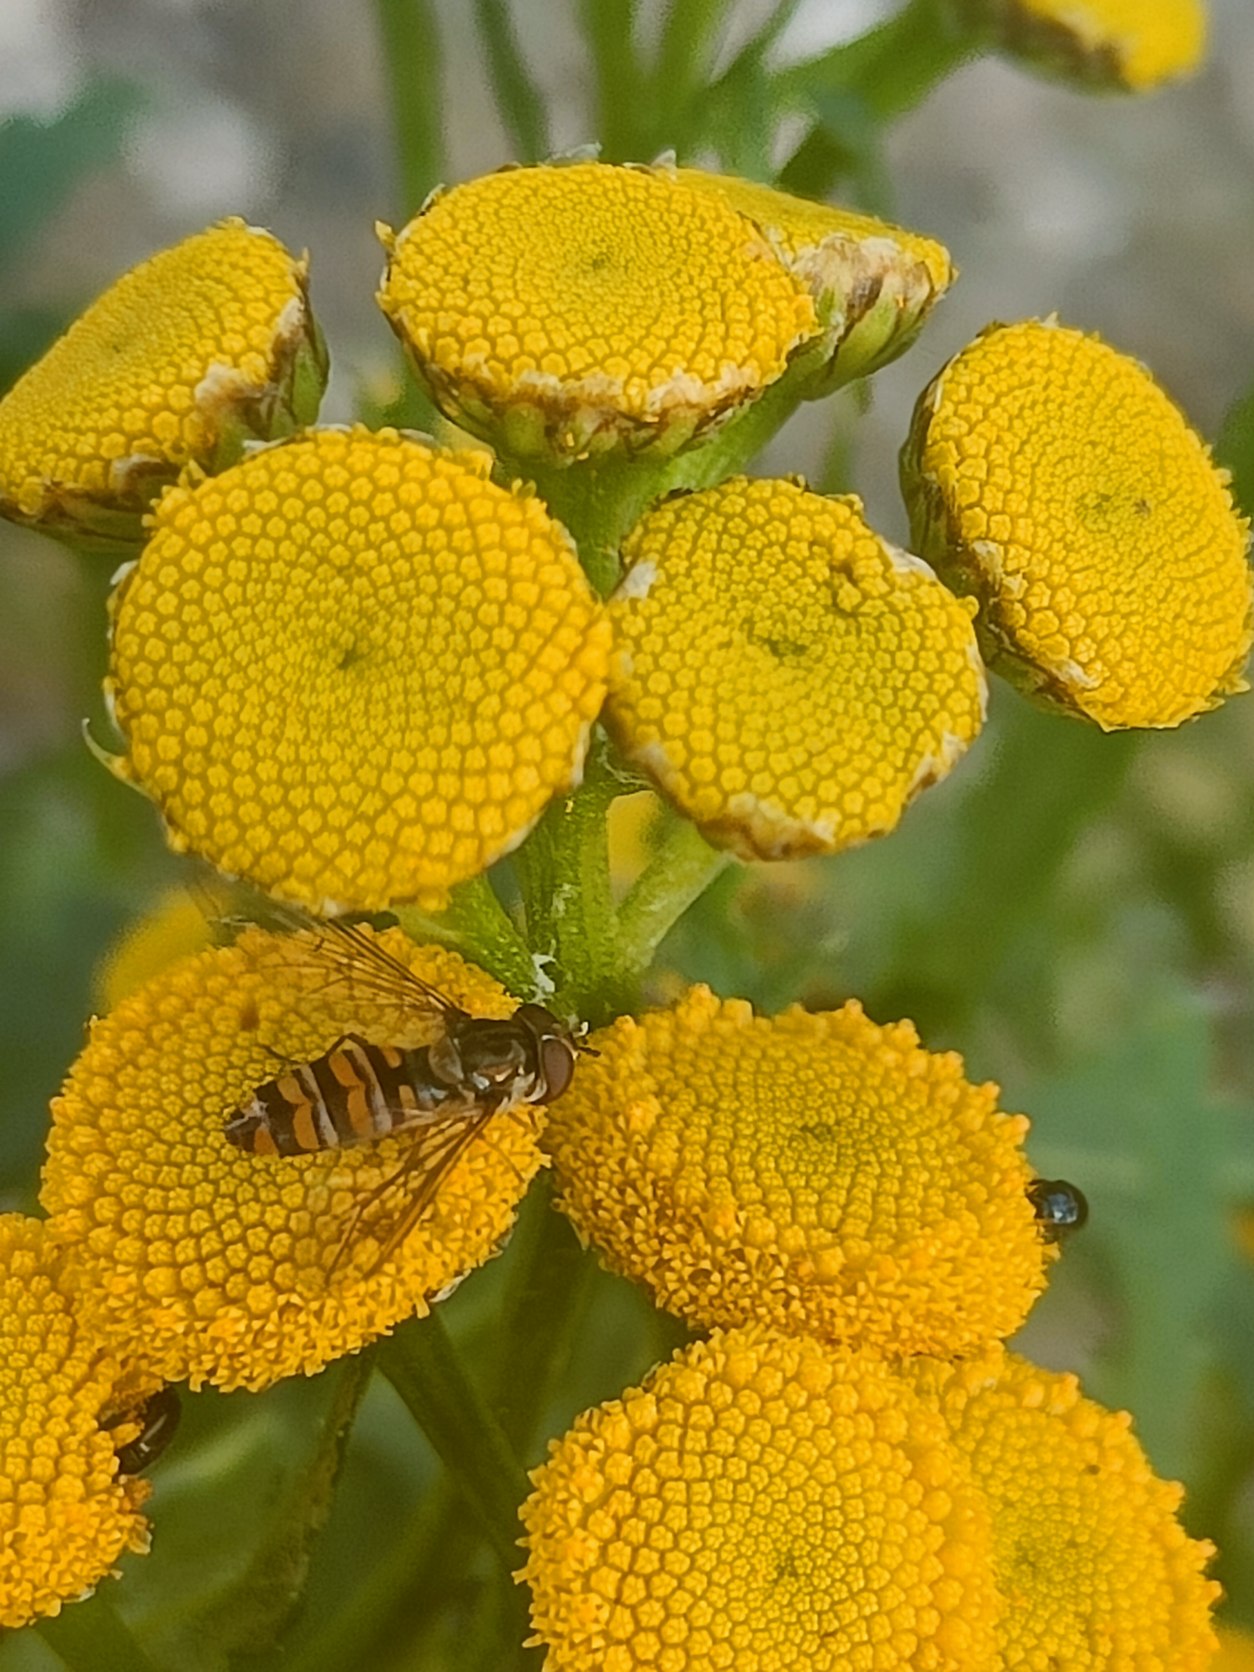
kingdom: Animalia
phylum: Arthropoda
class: Insecta
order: Diptera
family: Syrphidae
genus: Episyrphus
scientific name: Episyrphus balteatus
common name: Dobbeltbåndet svirreflue
